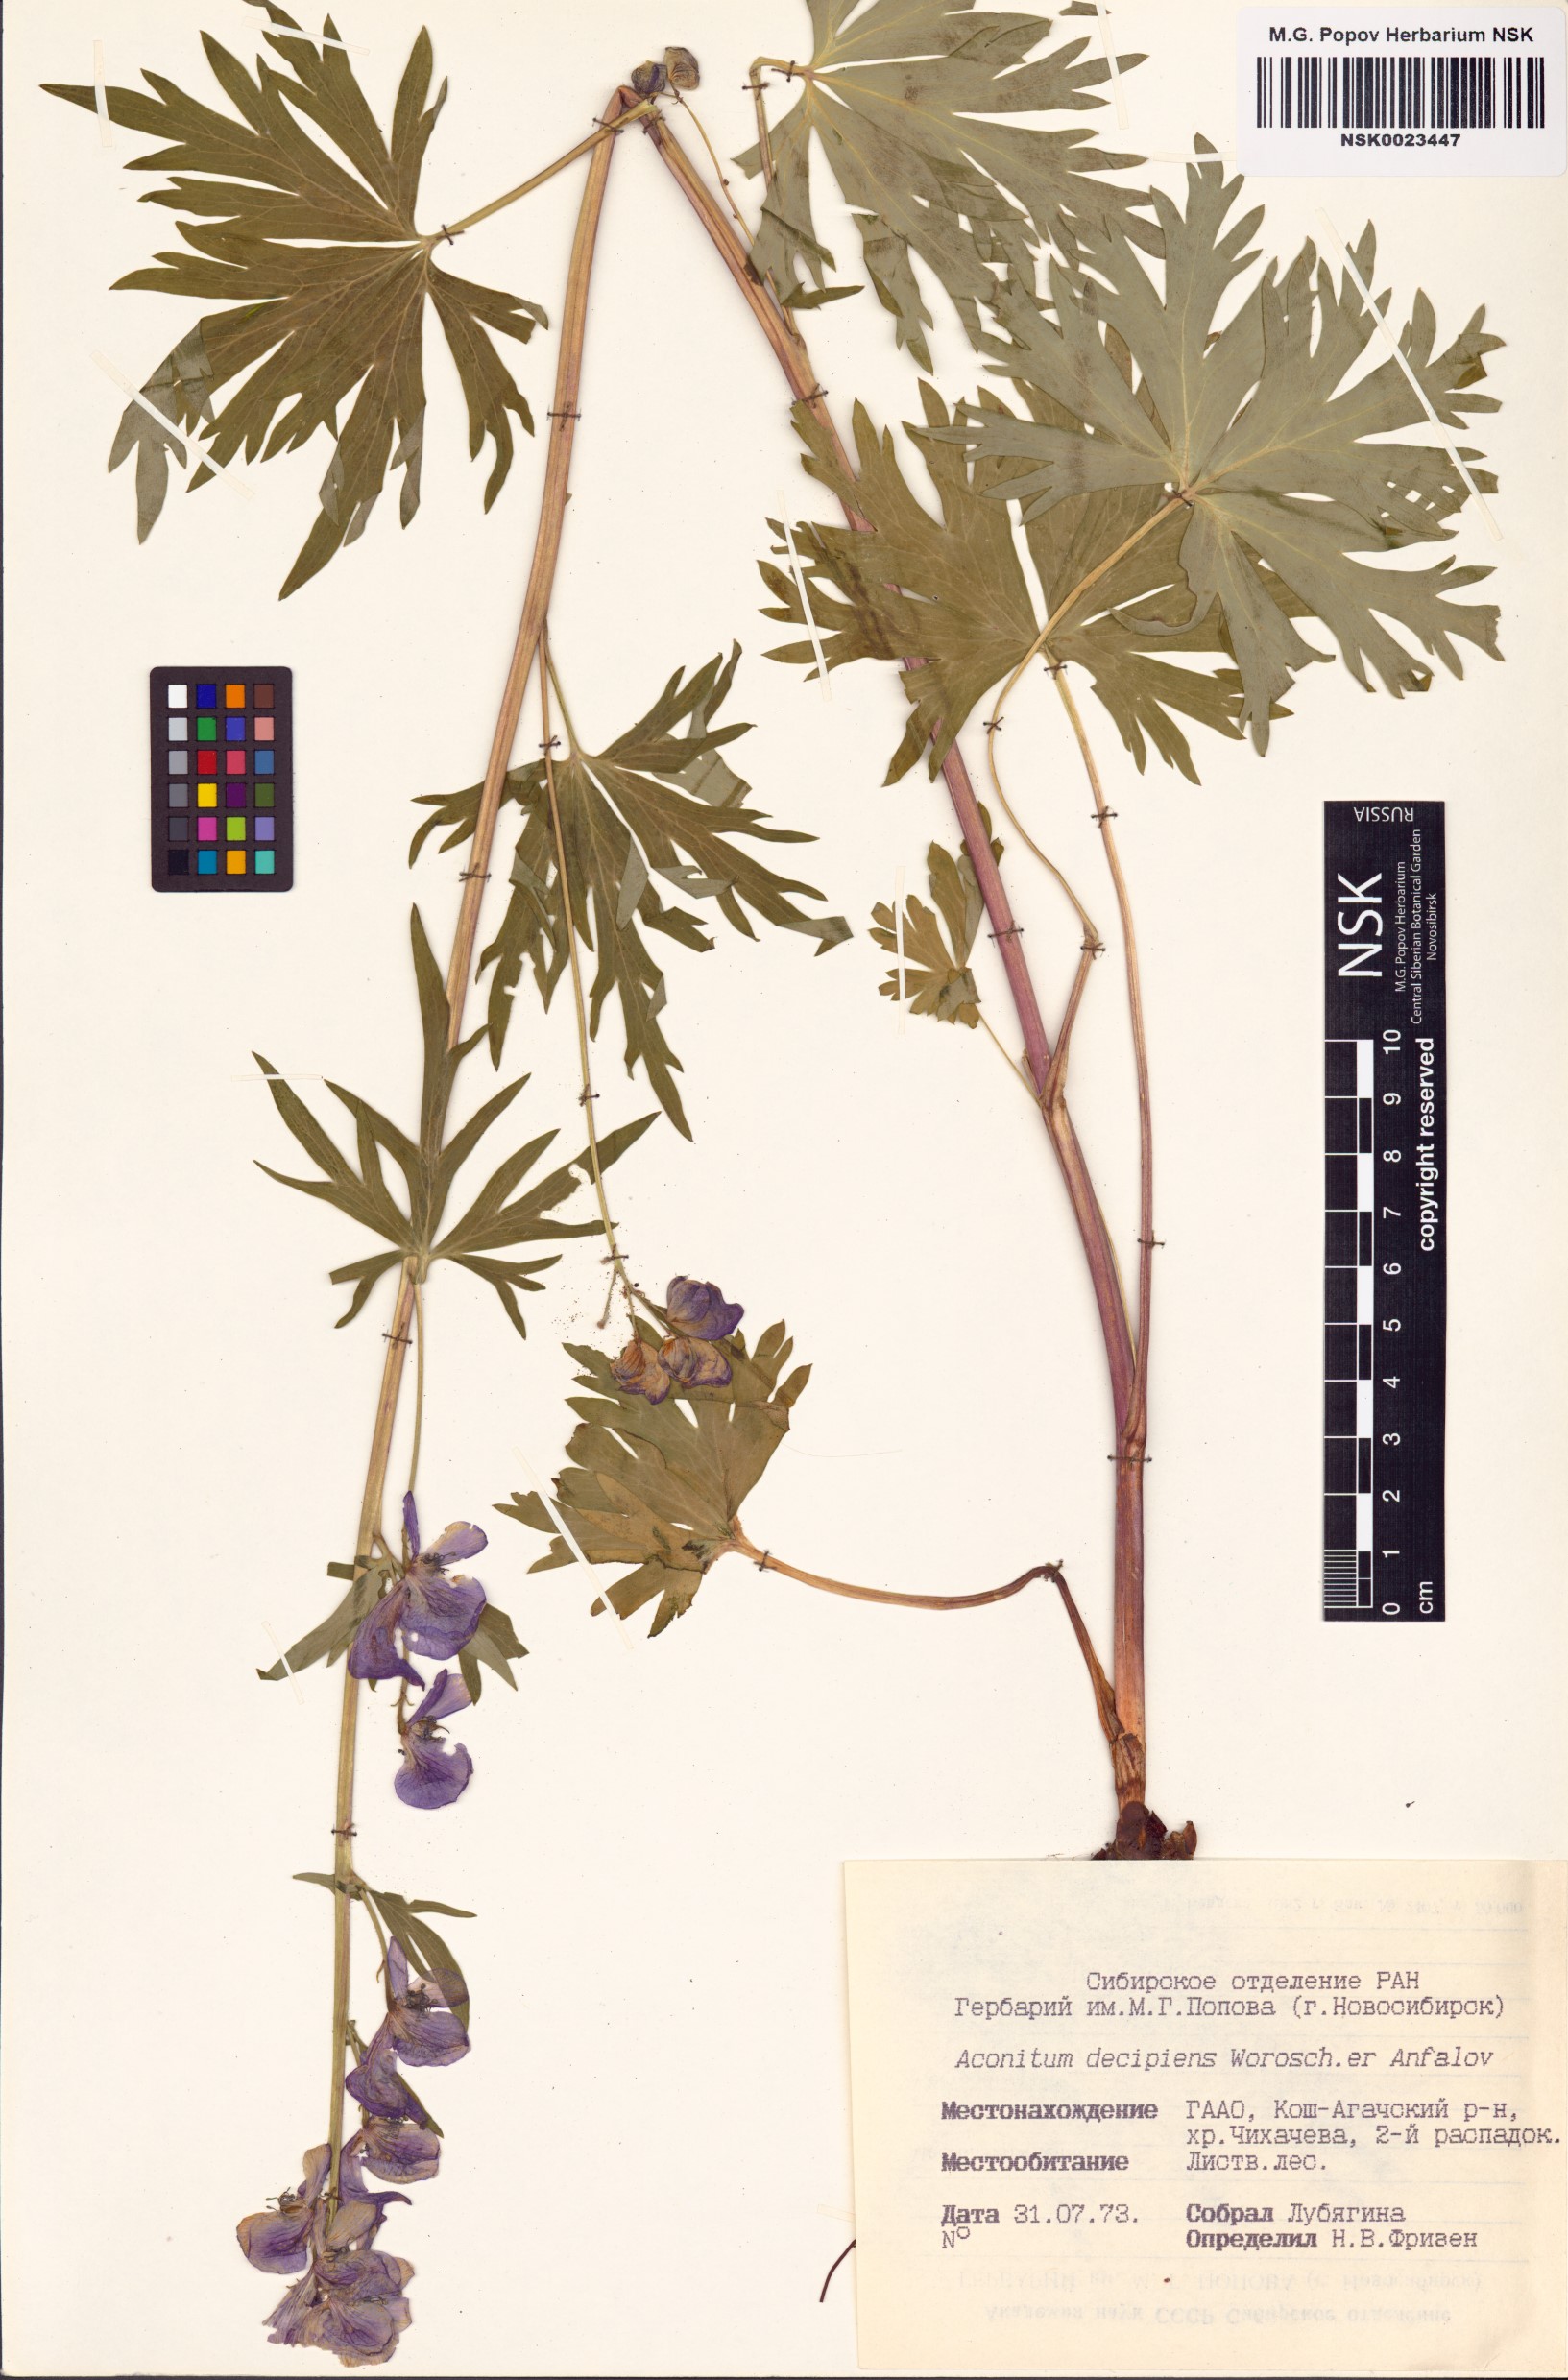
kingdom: Plantae
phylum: Tracheophyta
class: Magnoliopsida
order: Ranunculales
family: Ranunculaceae
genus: Aconitum
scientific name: Aconitum decipiens
